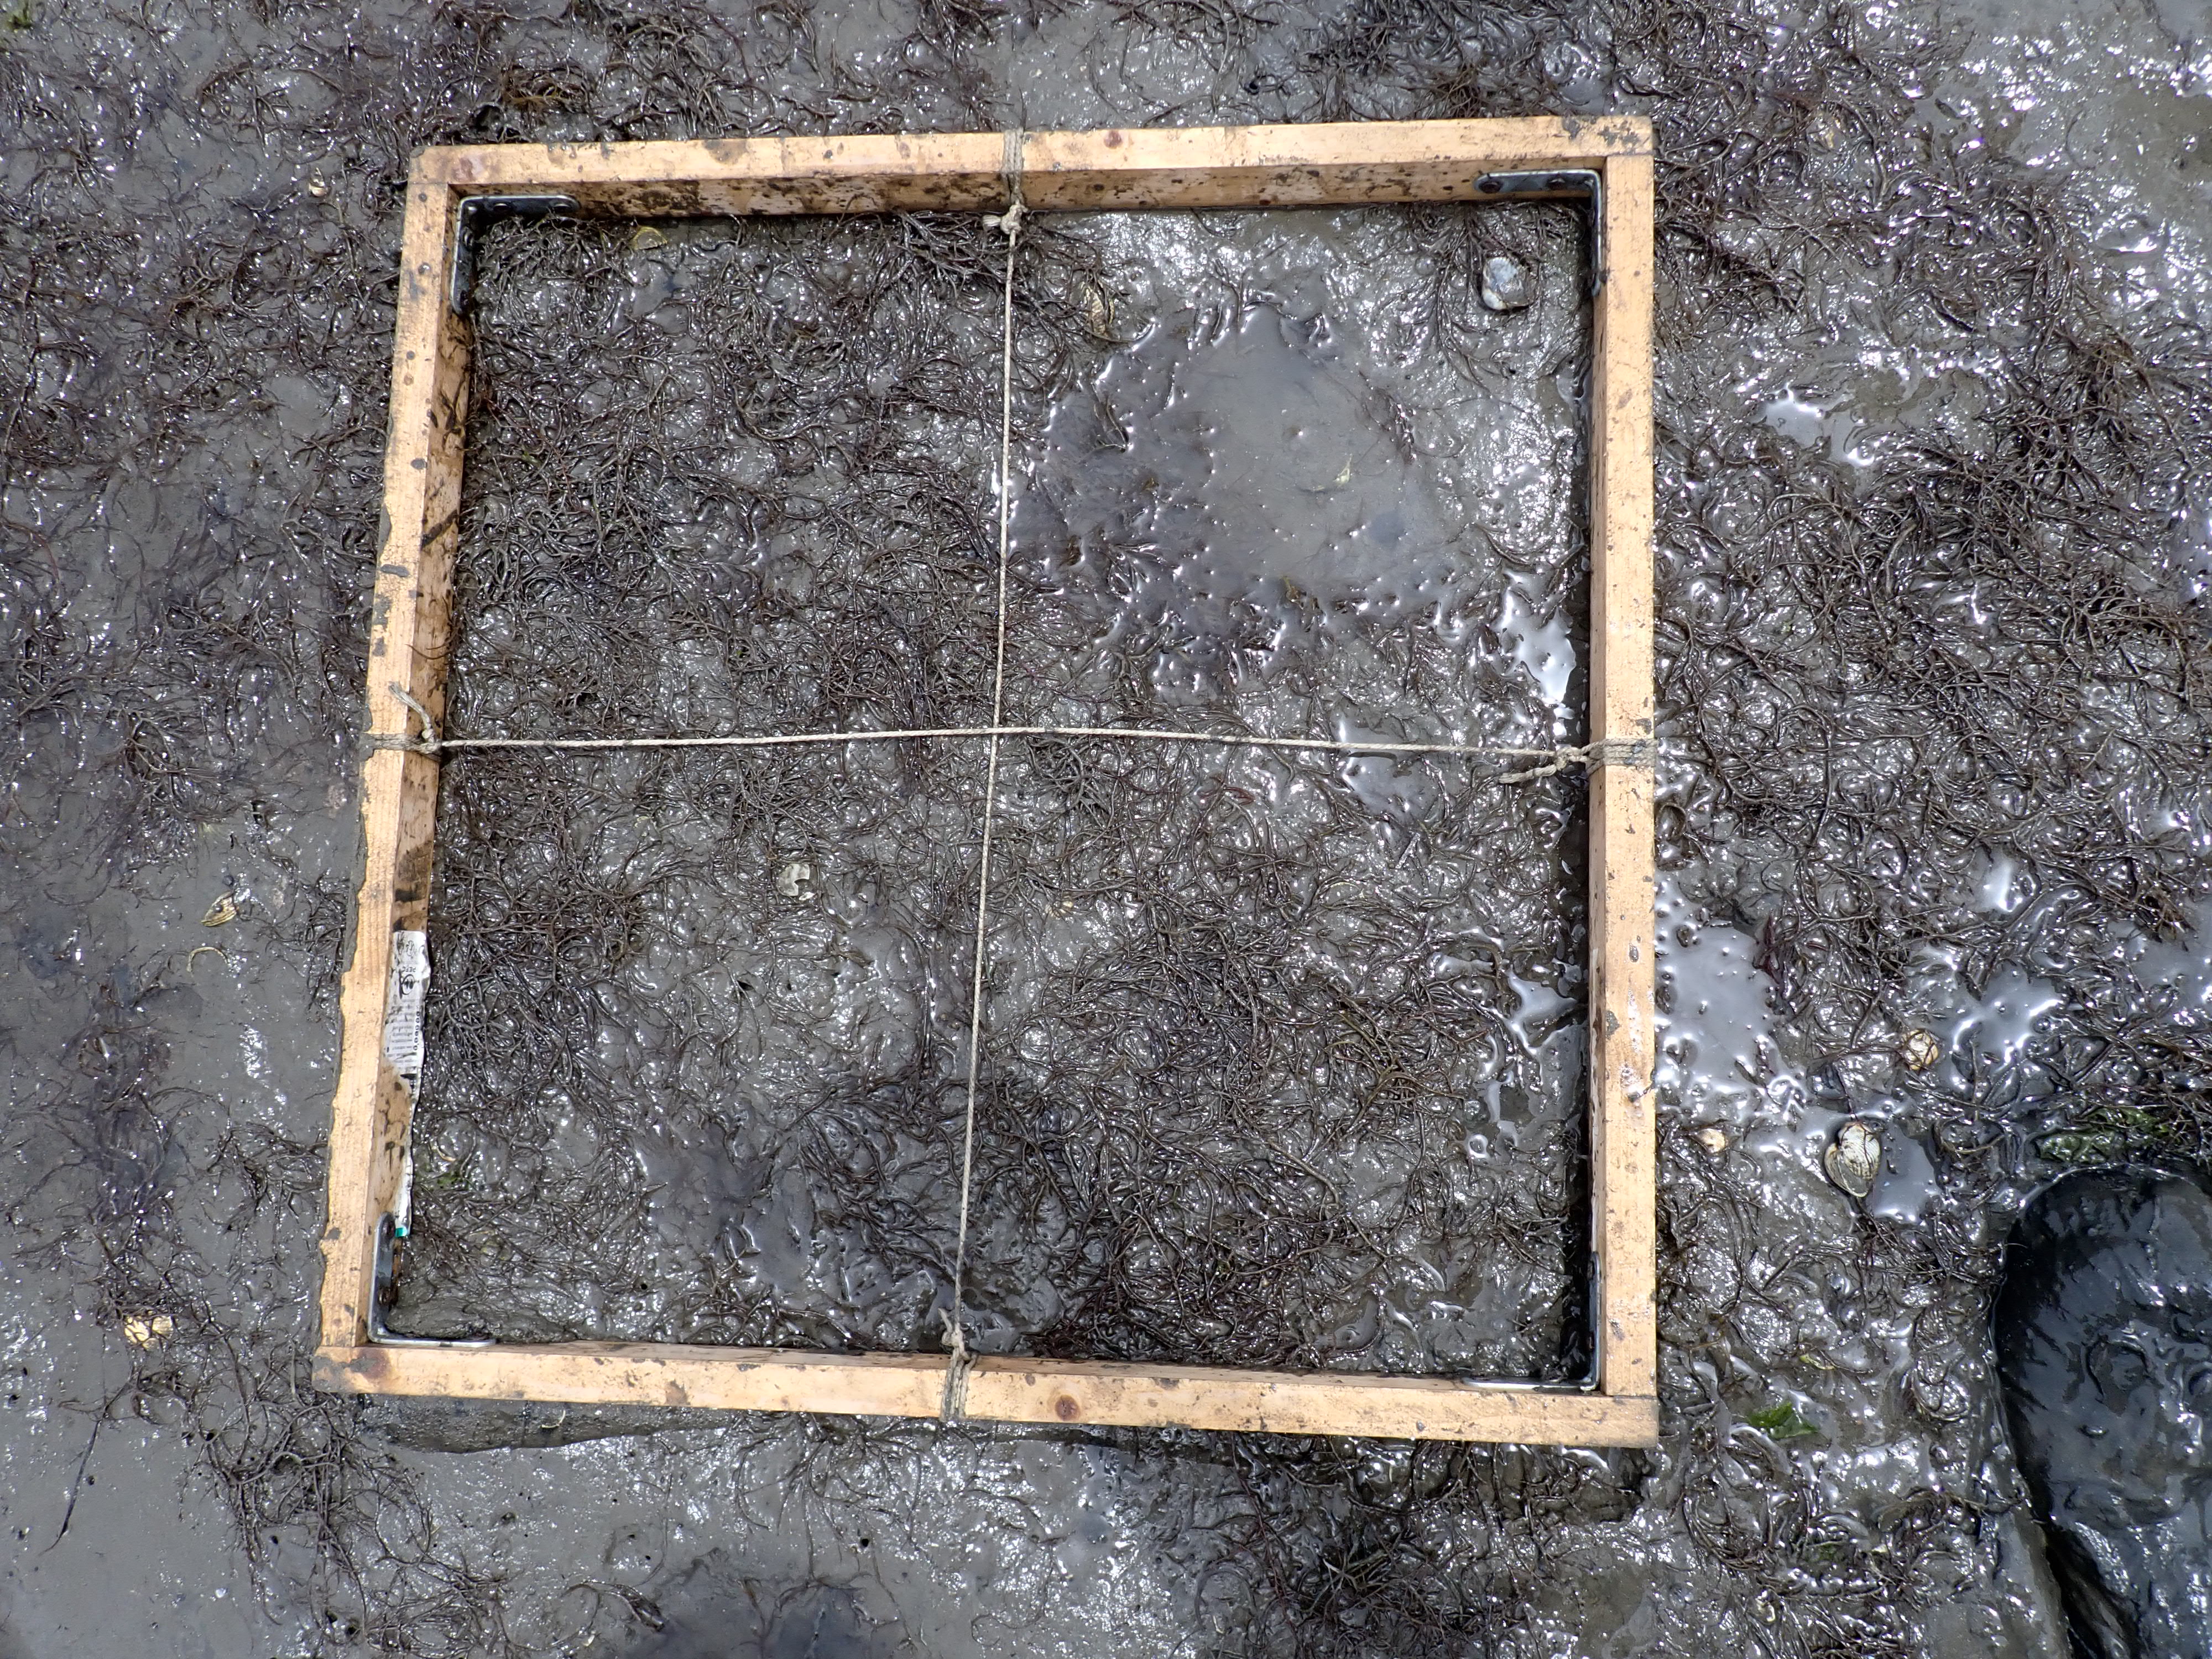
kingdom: Plantae
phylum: Rhodophyta
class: Florideophyceae
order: Gracilariales
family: Gracilariaceae
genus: Gracilaria
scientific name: Gracilaria vermiculophylla
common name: Algae
